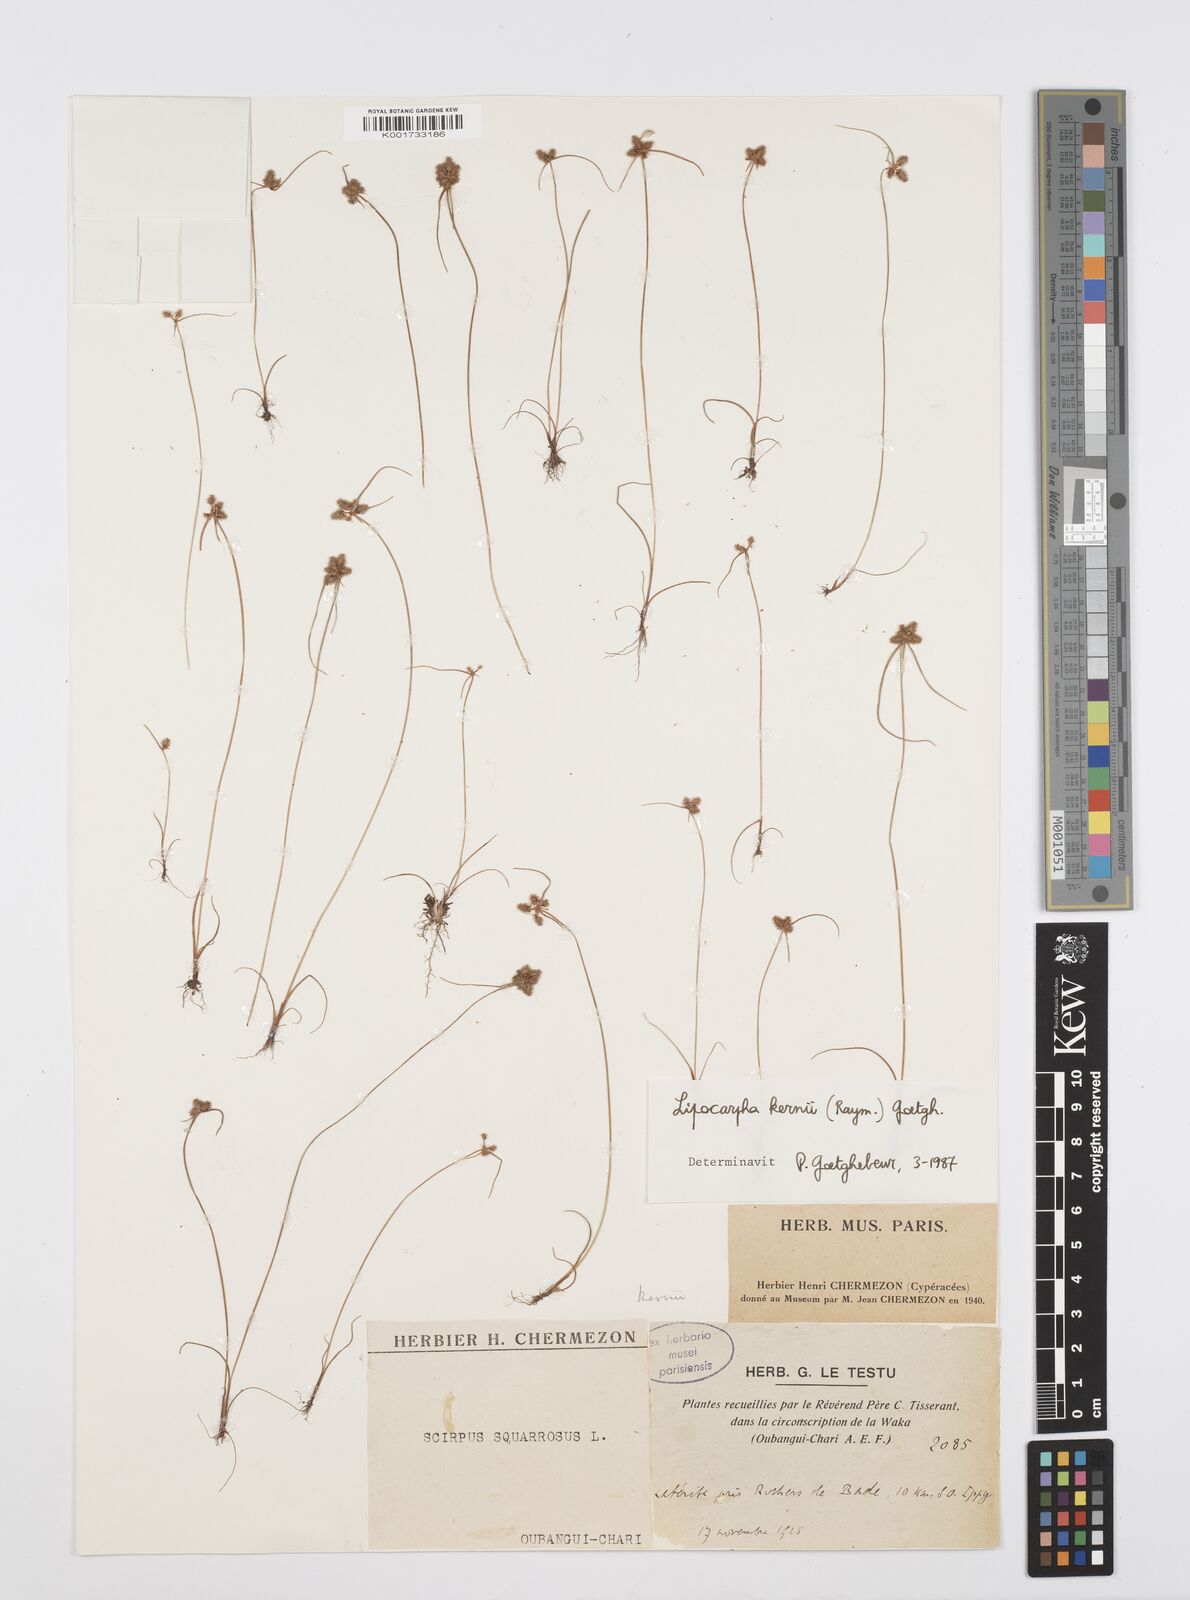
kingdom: Plantae
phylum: Tracheophyta
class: Liliopsida
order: Poales
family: Cyperaceae
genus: Cyperus
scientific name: Cyperus kernii
